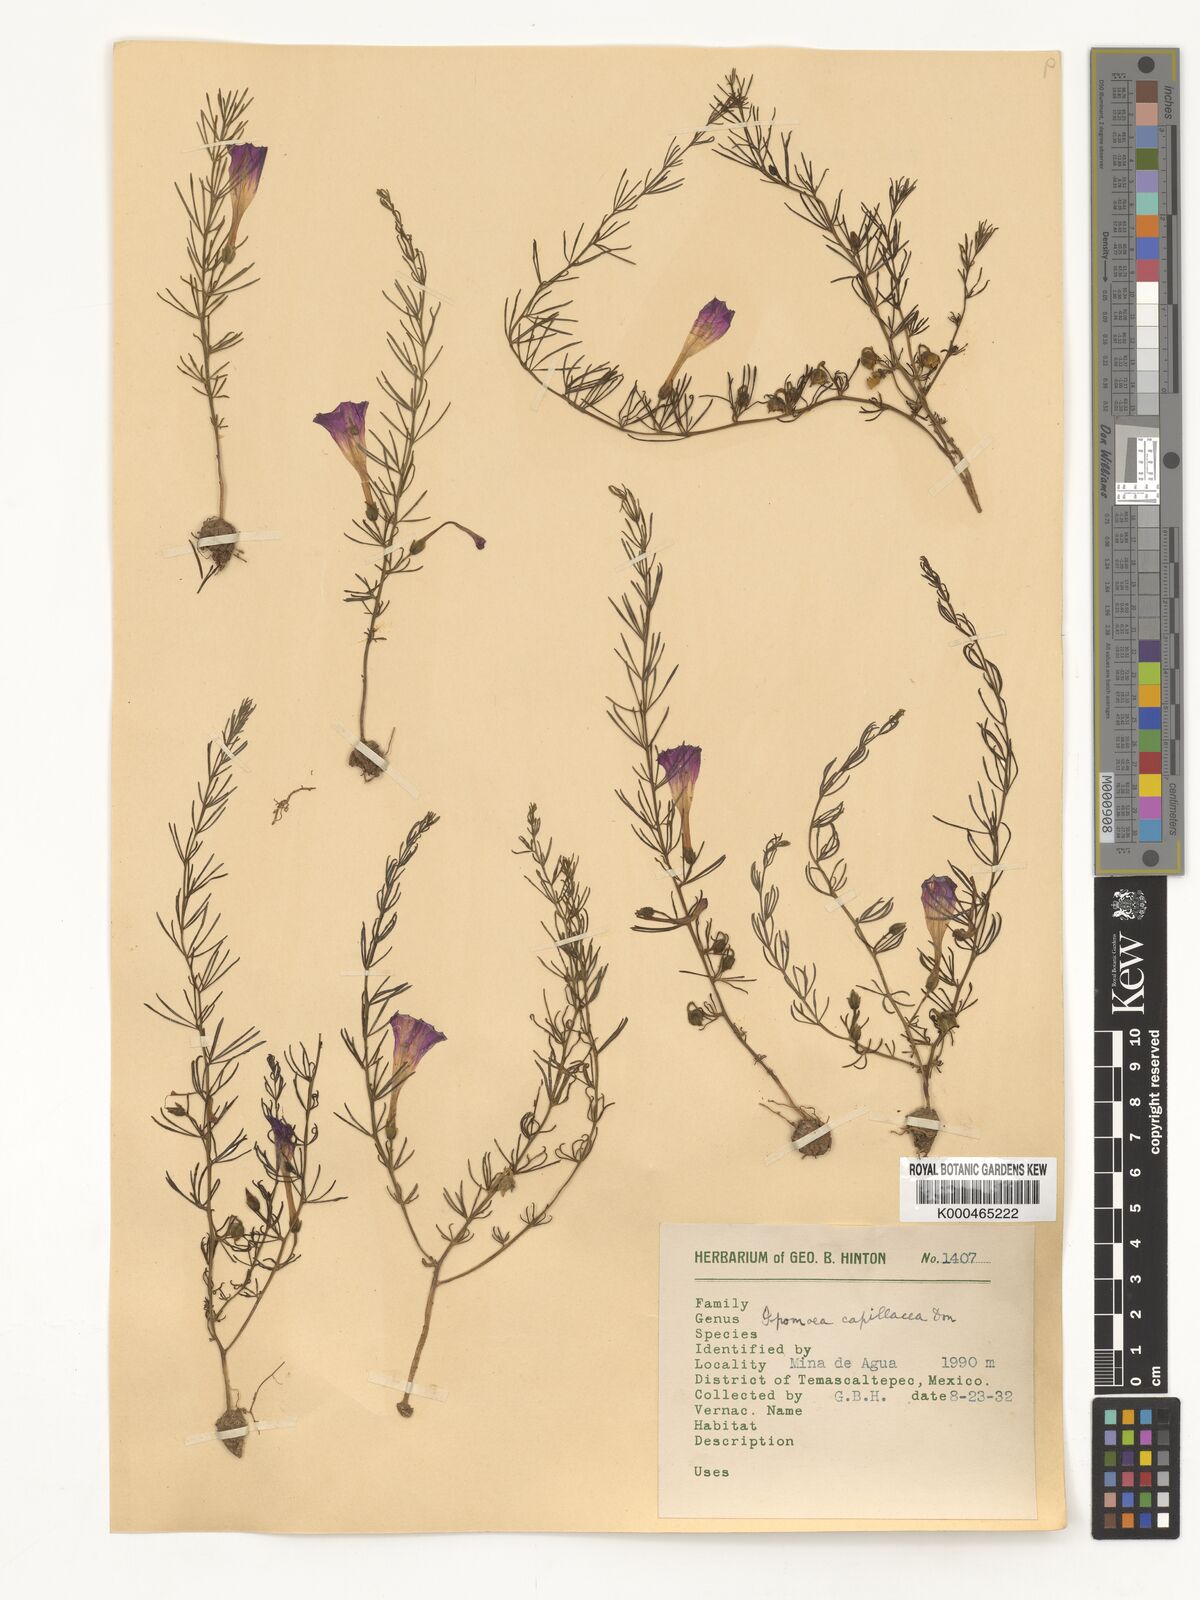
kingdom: Plantae
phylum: Tracheophyta
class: Magnoliopsida
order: Solanales
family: Convolvulaceae
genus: Ipomoea
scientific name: Ipomoea capillacea
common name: Purple morning-glory
